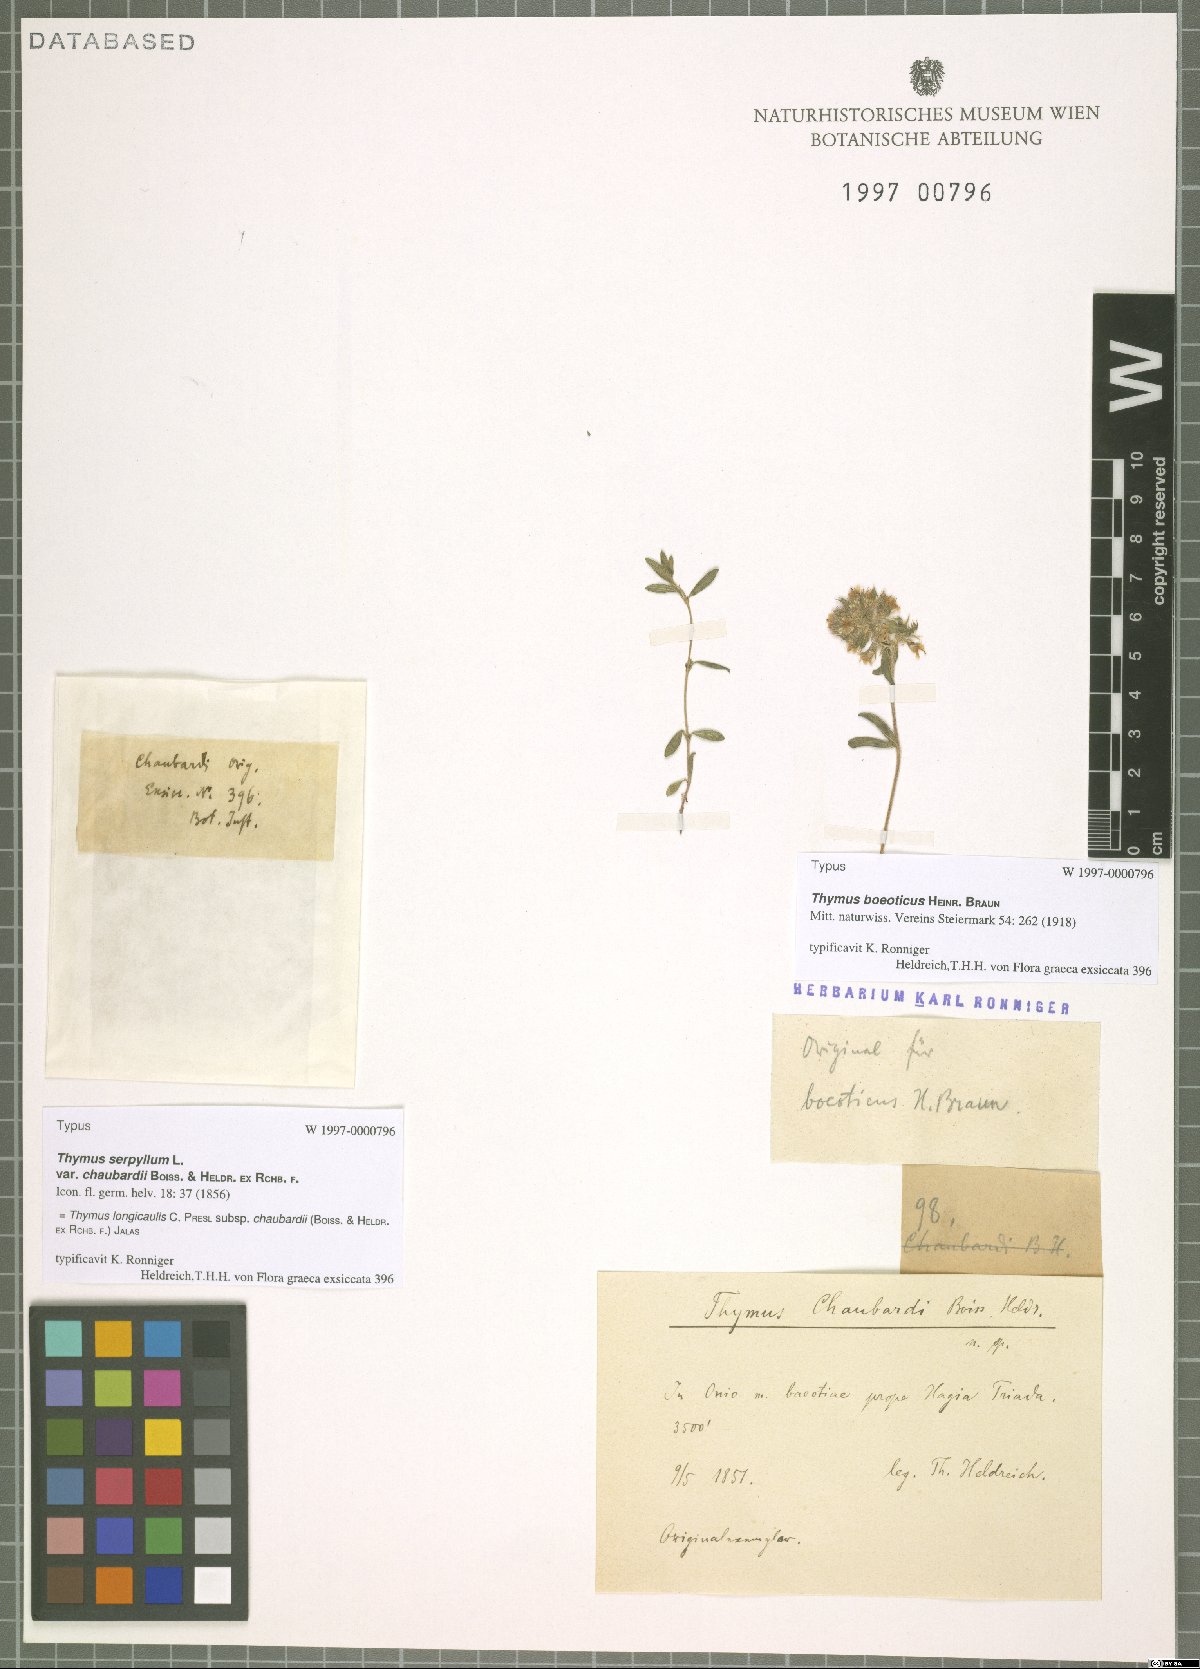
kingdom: Plantae
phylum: Tracheophyta
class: Magnoliopsida
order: Lamiales
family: Lamiaceae
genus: Thymus
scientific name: Thymus longicaulis
